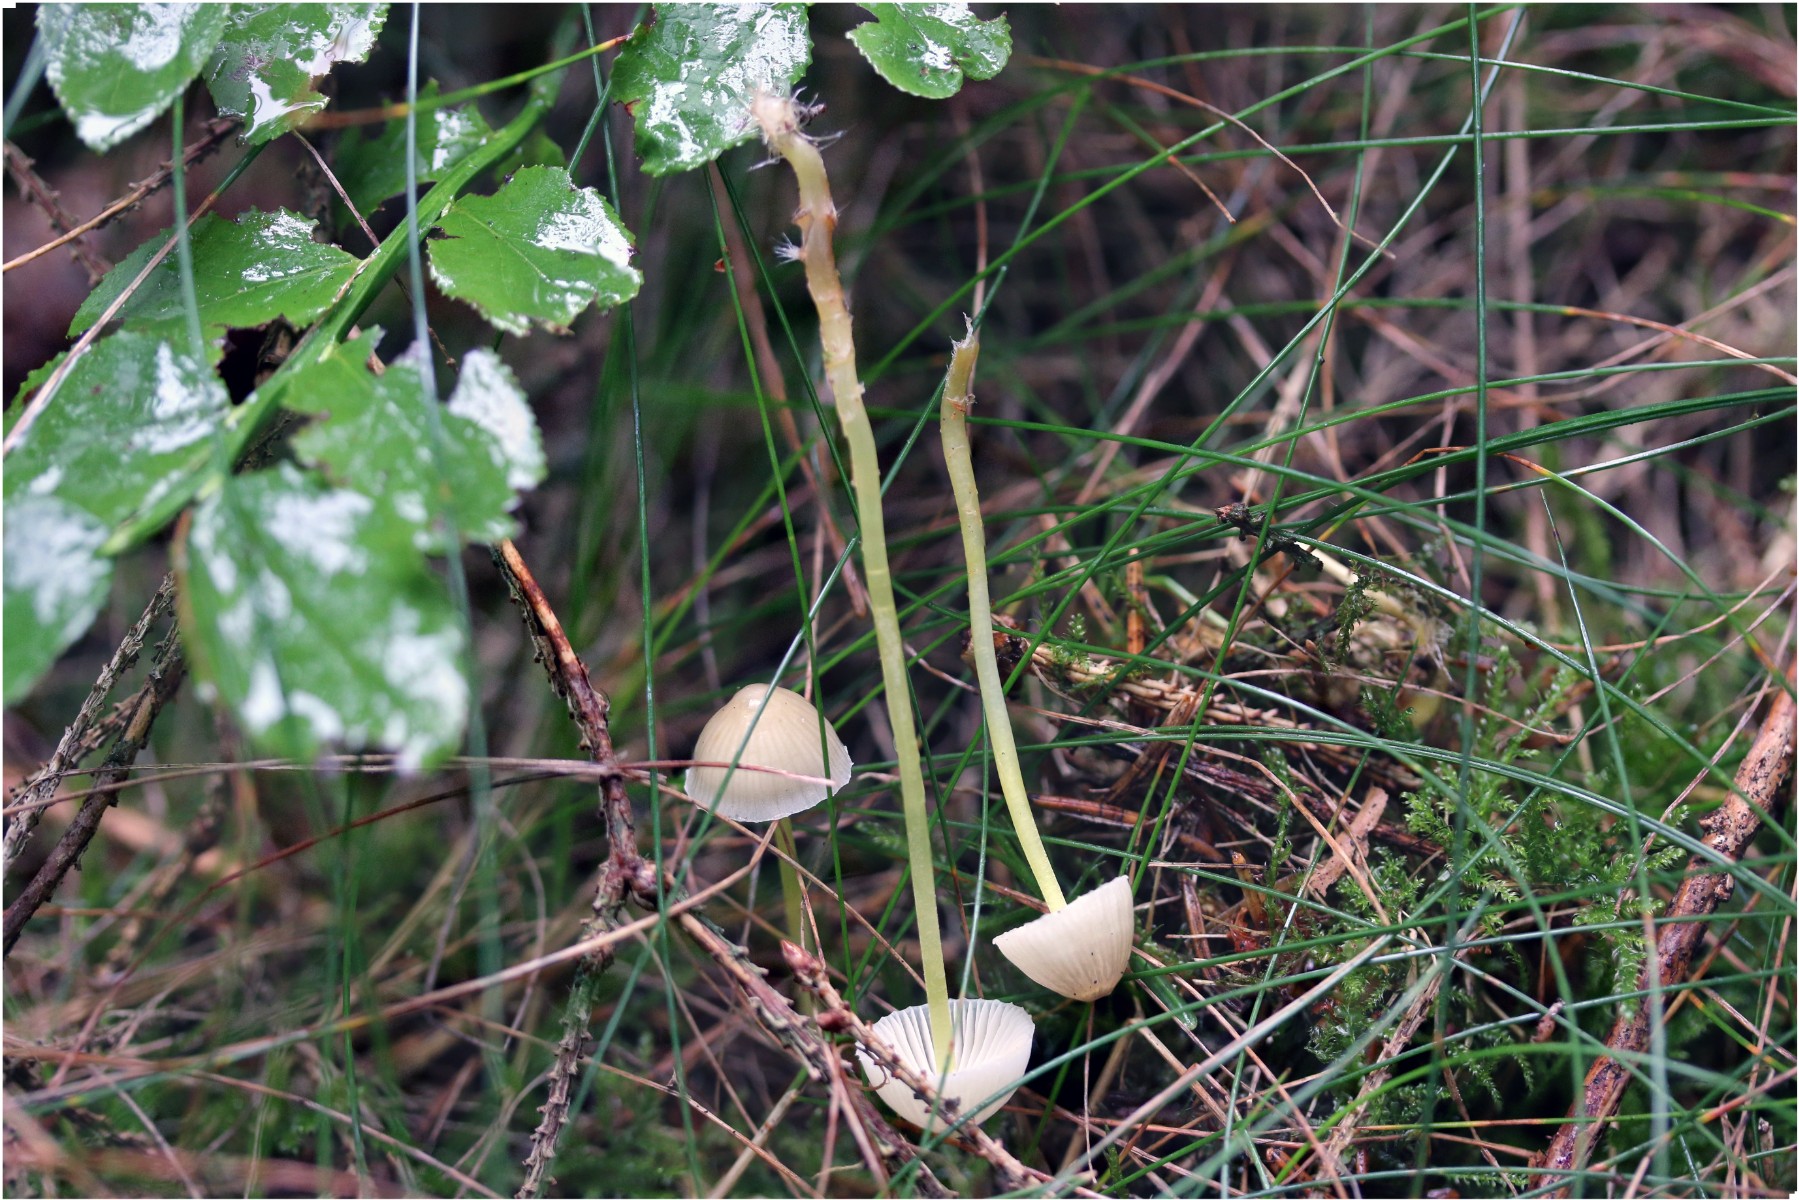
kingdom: Fungi
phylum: Basidiomycota
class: Agaricomycetes
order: Agaricales
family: Mycenaceae
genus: Mycena
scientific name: Mycena epipterygia
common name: gulstokket huesvamp
